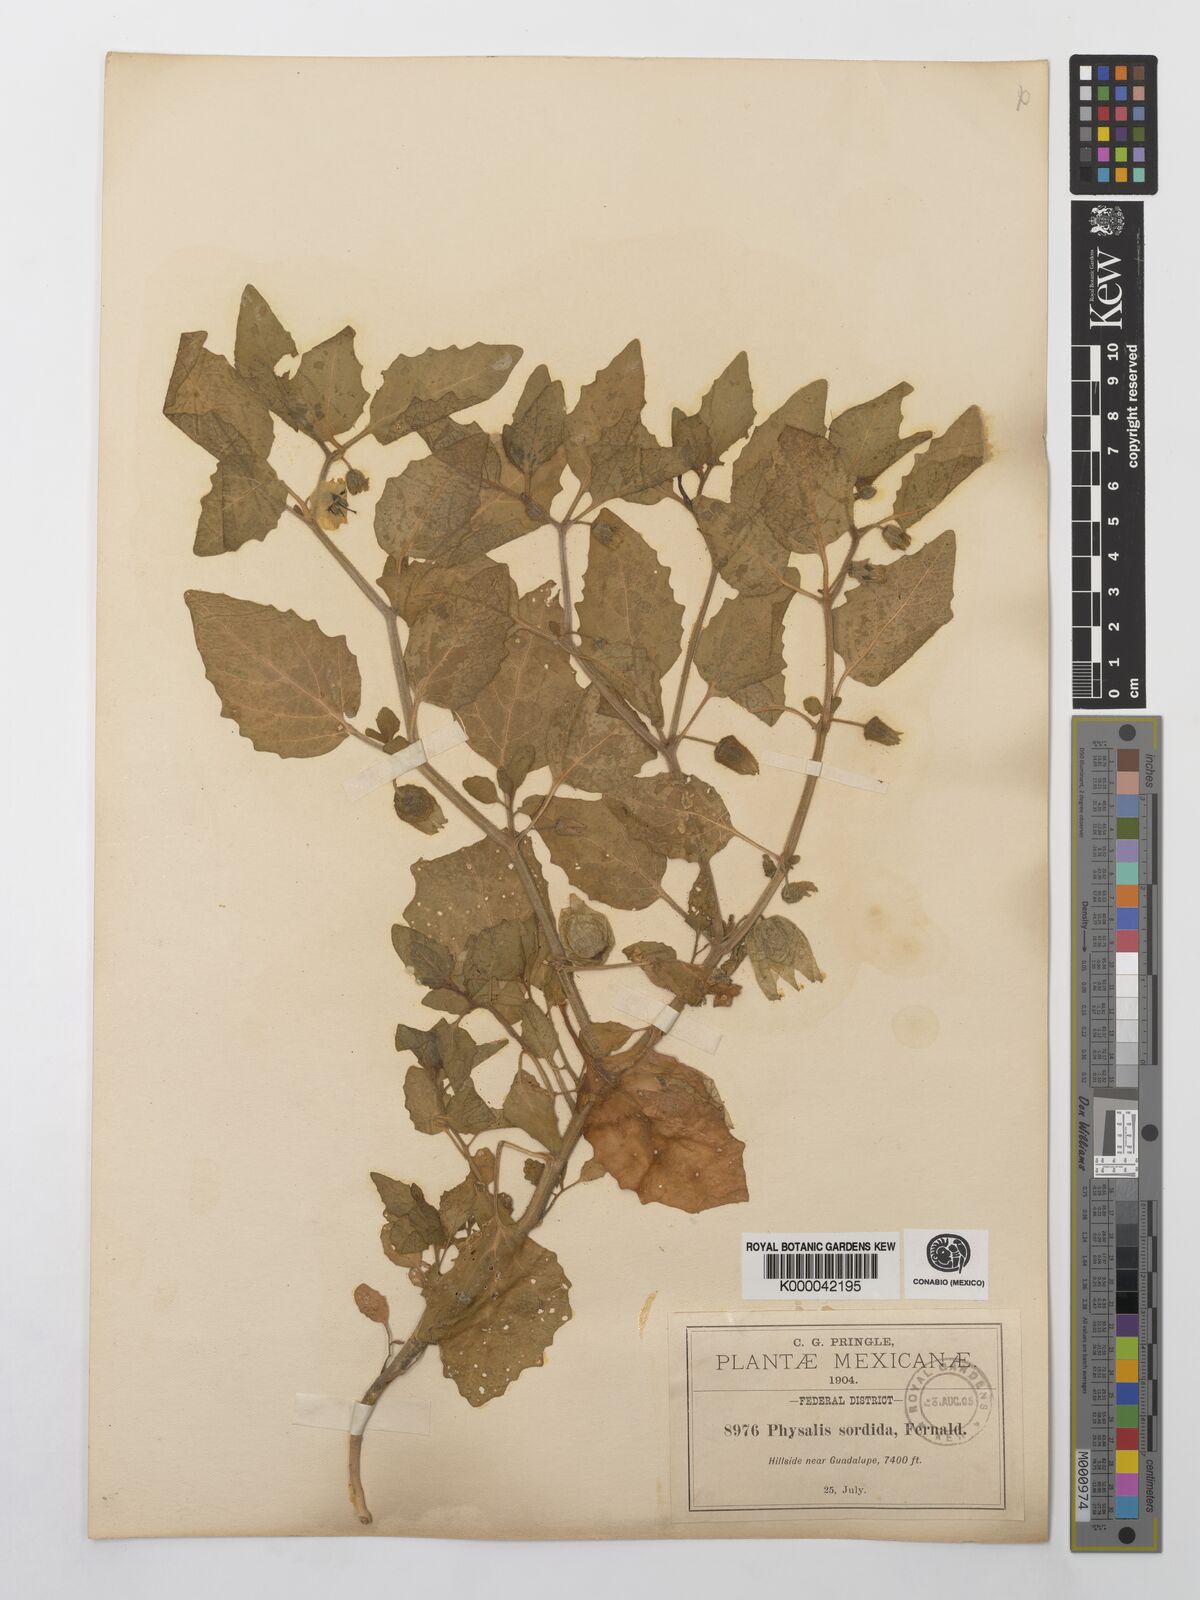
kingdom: Plantae
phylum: Tracheophyta
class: Magnoliopsida
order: Solanales
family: Solanaceae
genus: Physalis
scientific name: Physalis sordida
